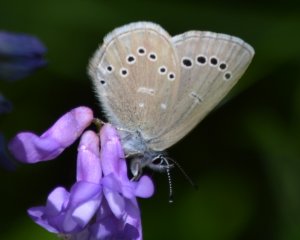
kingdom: Animalia
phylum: Arthropoda
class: Insecta
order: Lepidoptera
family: Lycaenidae
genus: Glaucopsyche
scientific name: Glaucopsyche lygdamus
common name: Silvery Blue
